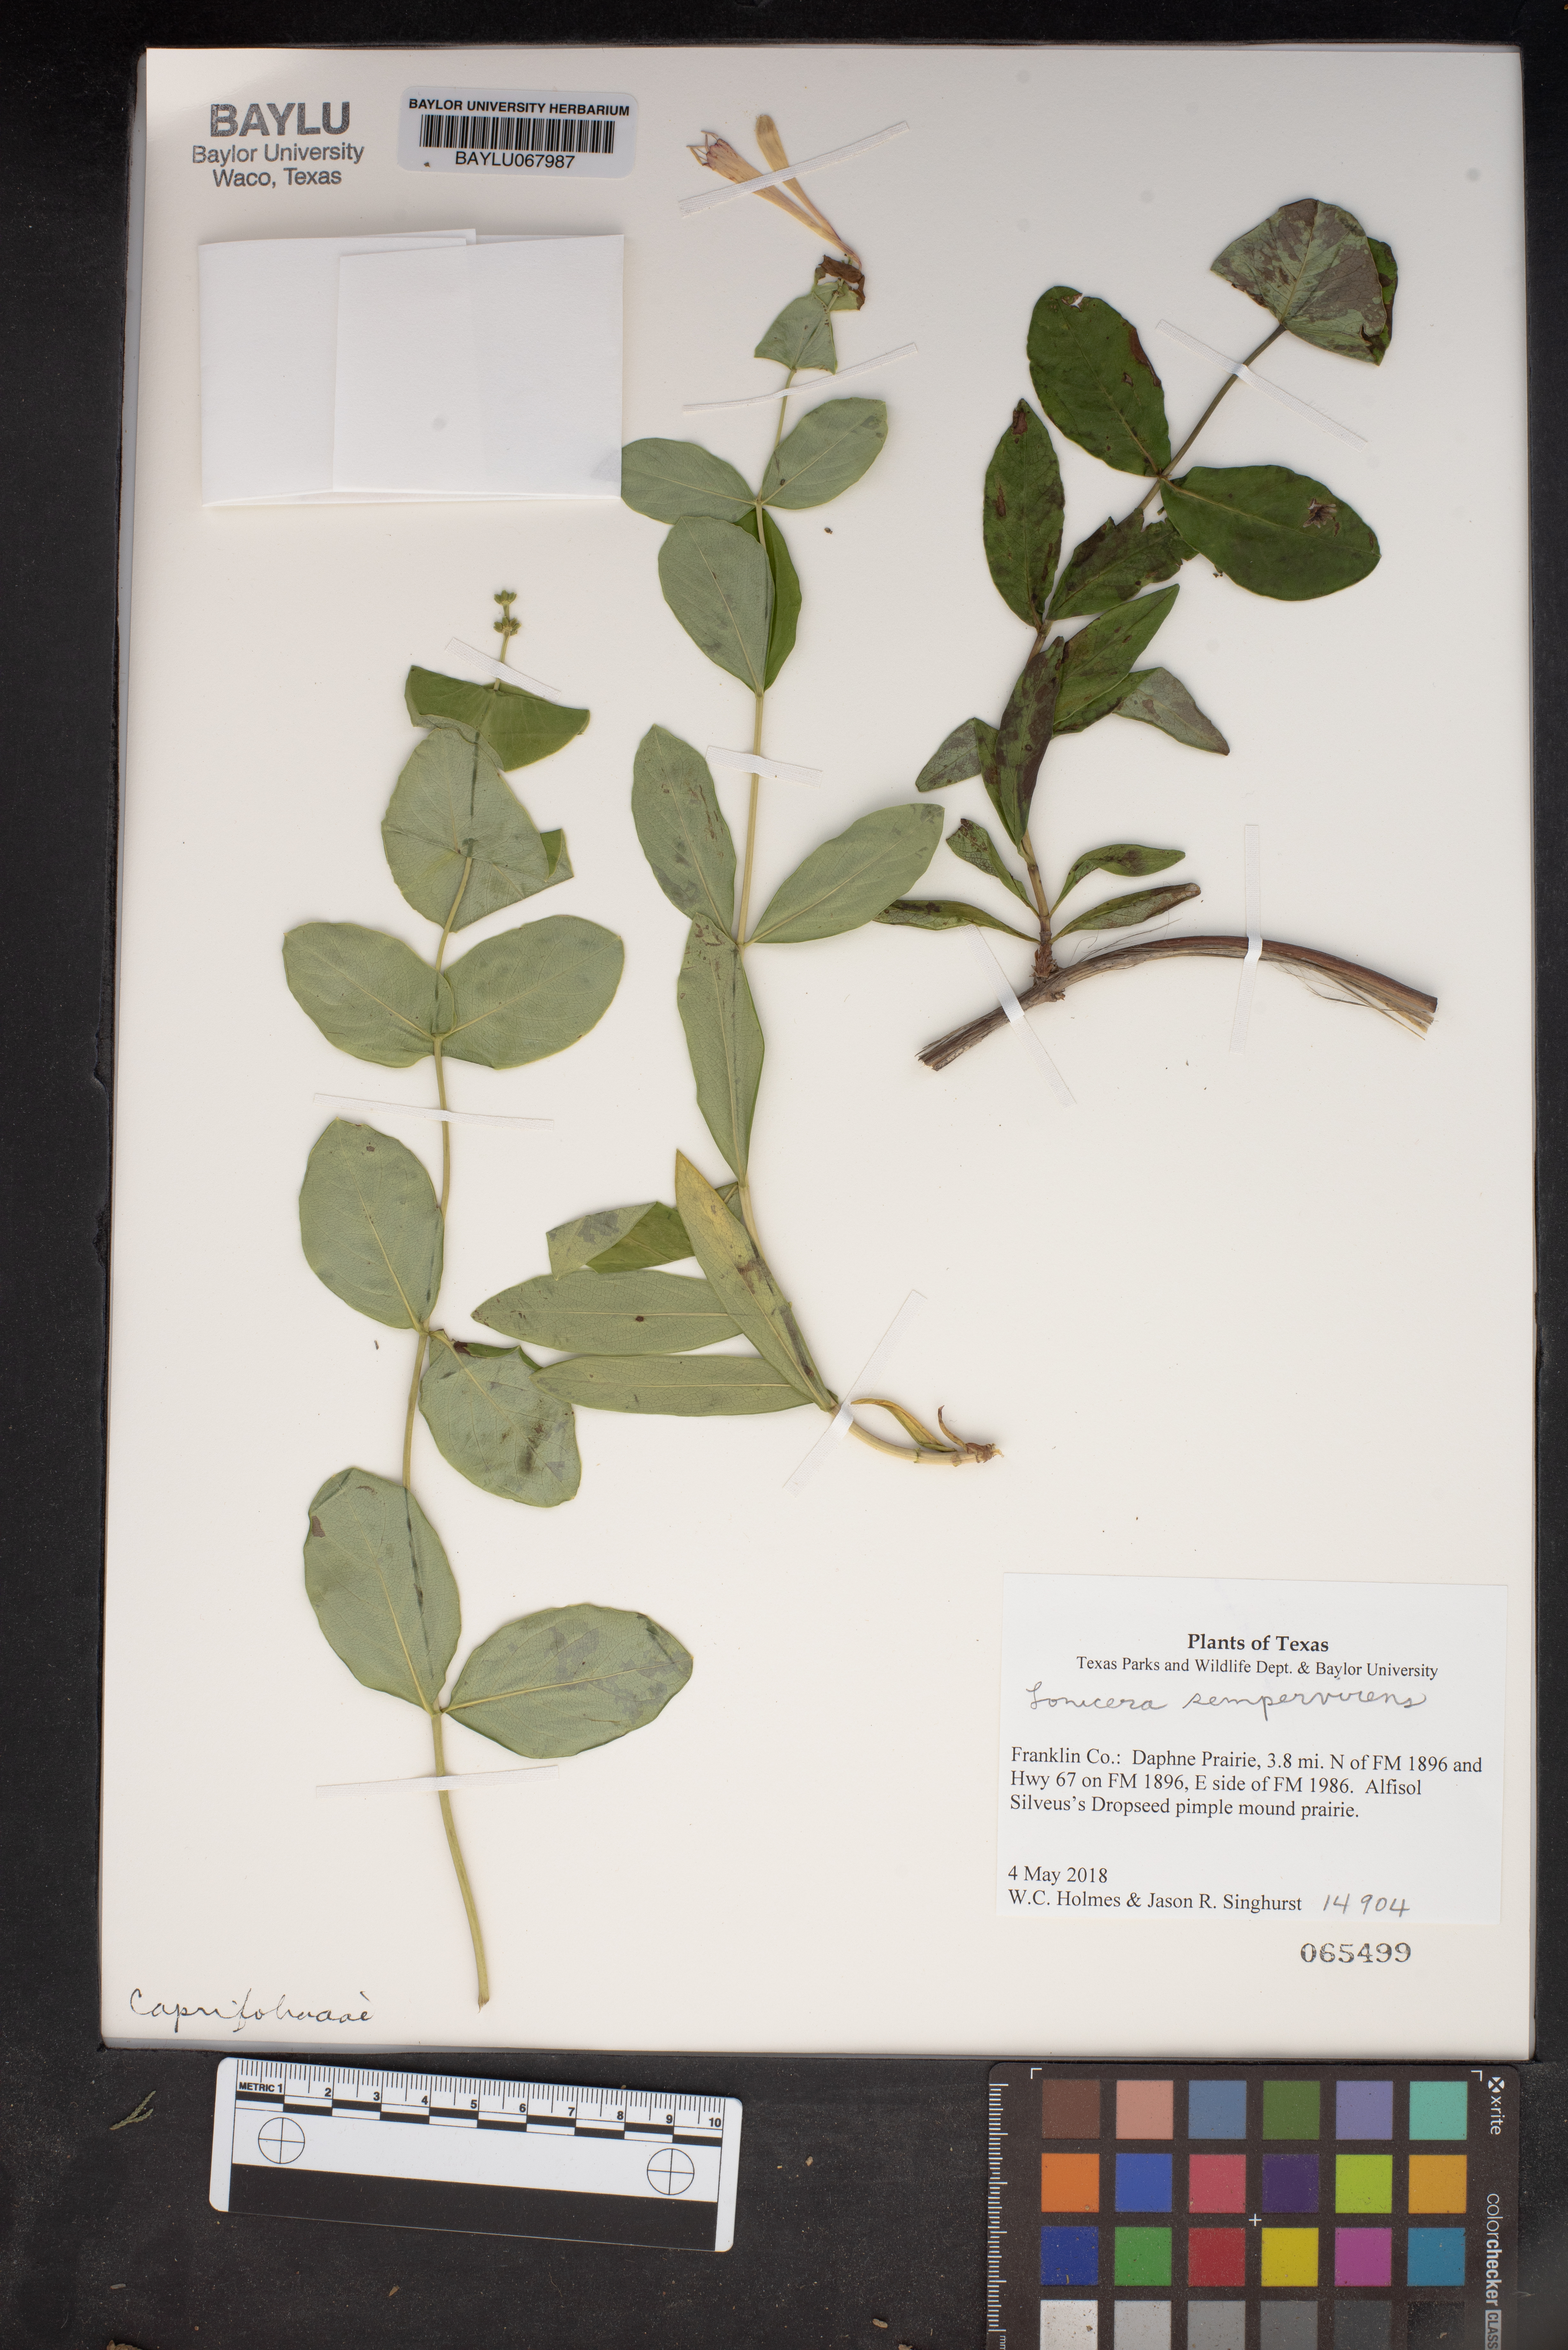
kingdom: Plantae
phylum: Tracheophyta
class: Magnoliopsida
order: Dipsacales
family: Caprifoliaceae
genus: Lonicera
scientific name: Lonicera sempervirens
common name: Coral honeysuckle
